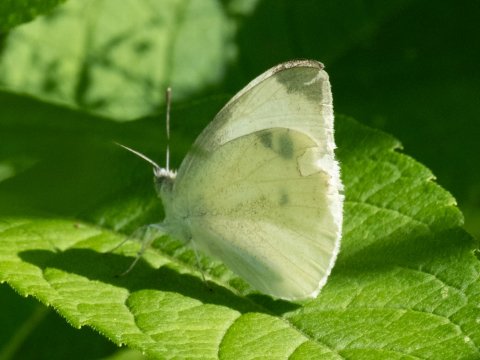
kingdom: Animalia
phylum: Arthropoda
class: Insecta
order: Lepidoptera
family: Pieridae
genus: Pieris
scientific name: Pieris rapae
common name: Cabbage White
